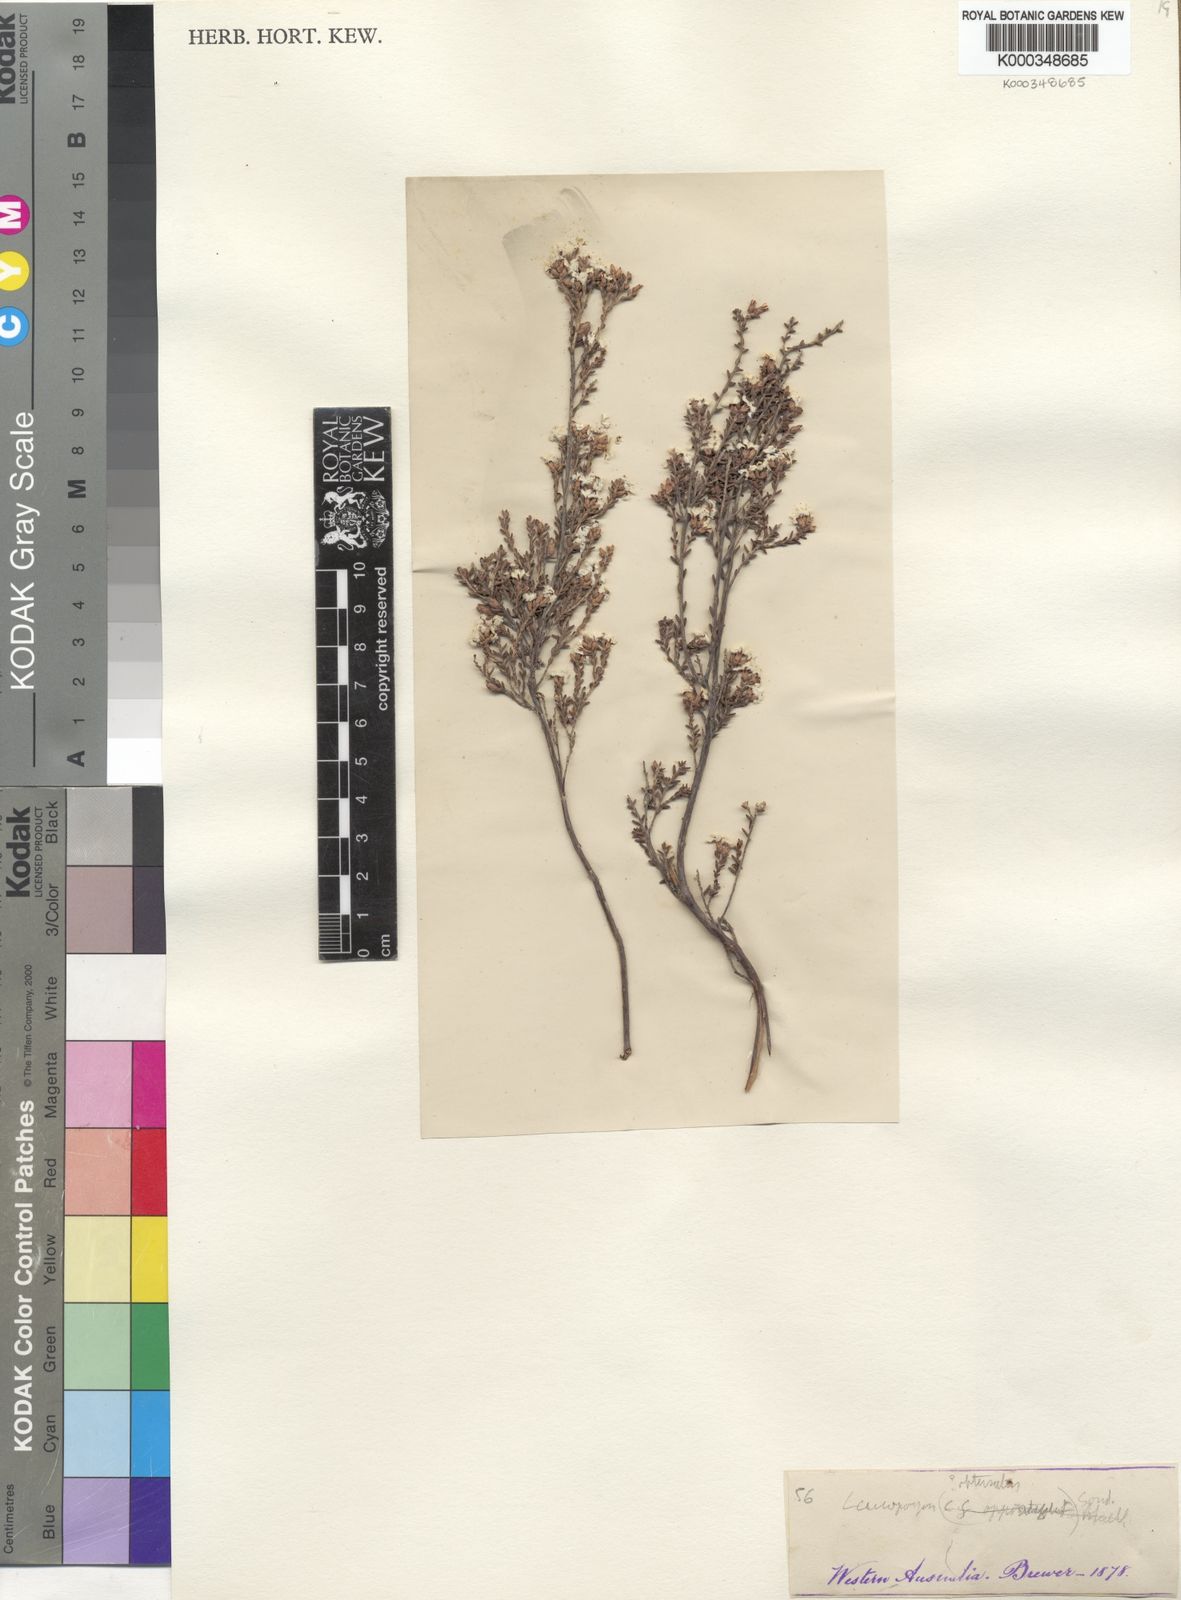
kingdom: Plantae
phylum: Tracheophyta
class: Magnoliopsida
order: Ericales
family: Ericaceae
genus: Leucopogon
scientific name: Leucopogon obtusatus
